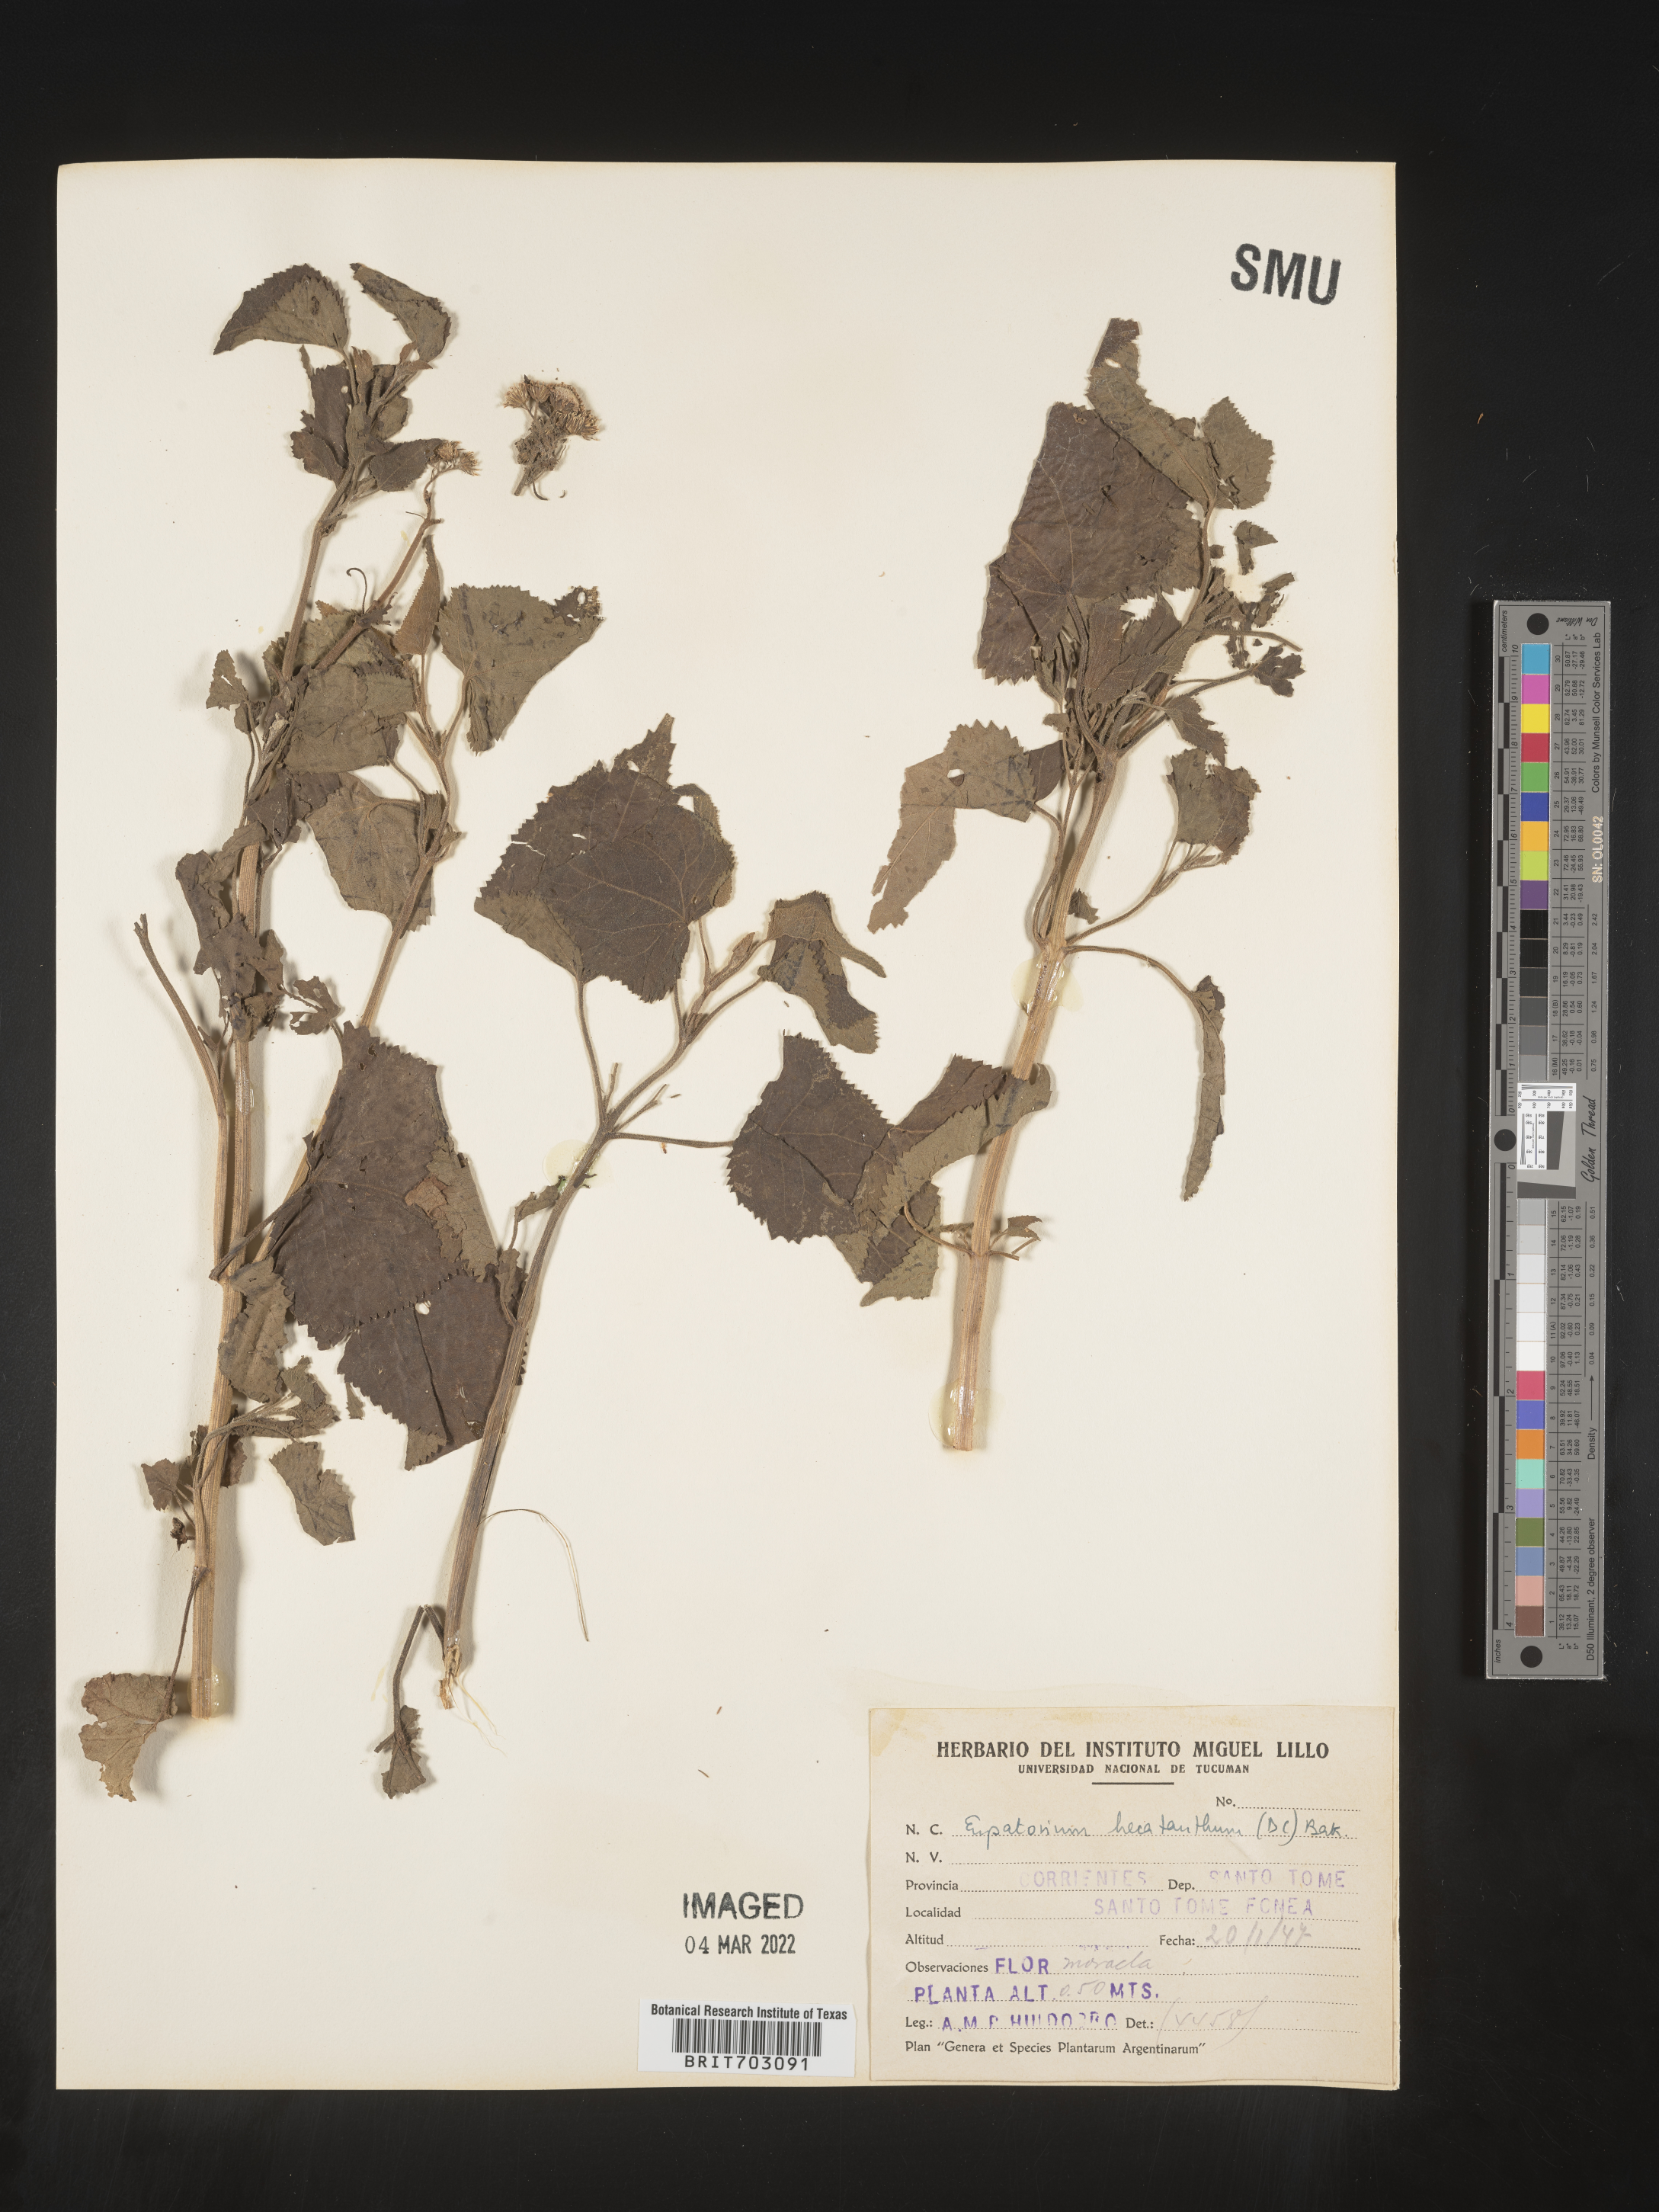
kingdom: Plantae
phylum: Tracheophyta
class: Magnoliopsida
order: Asterales
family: Asteraceae
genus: Eupatorium
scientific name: Eupatorium
